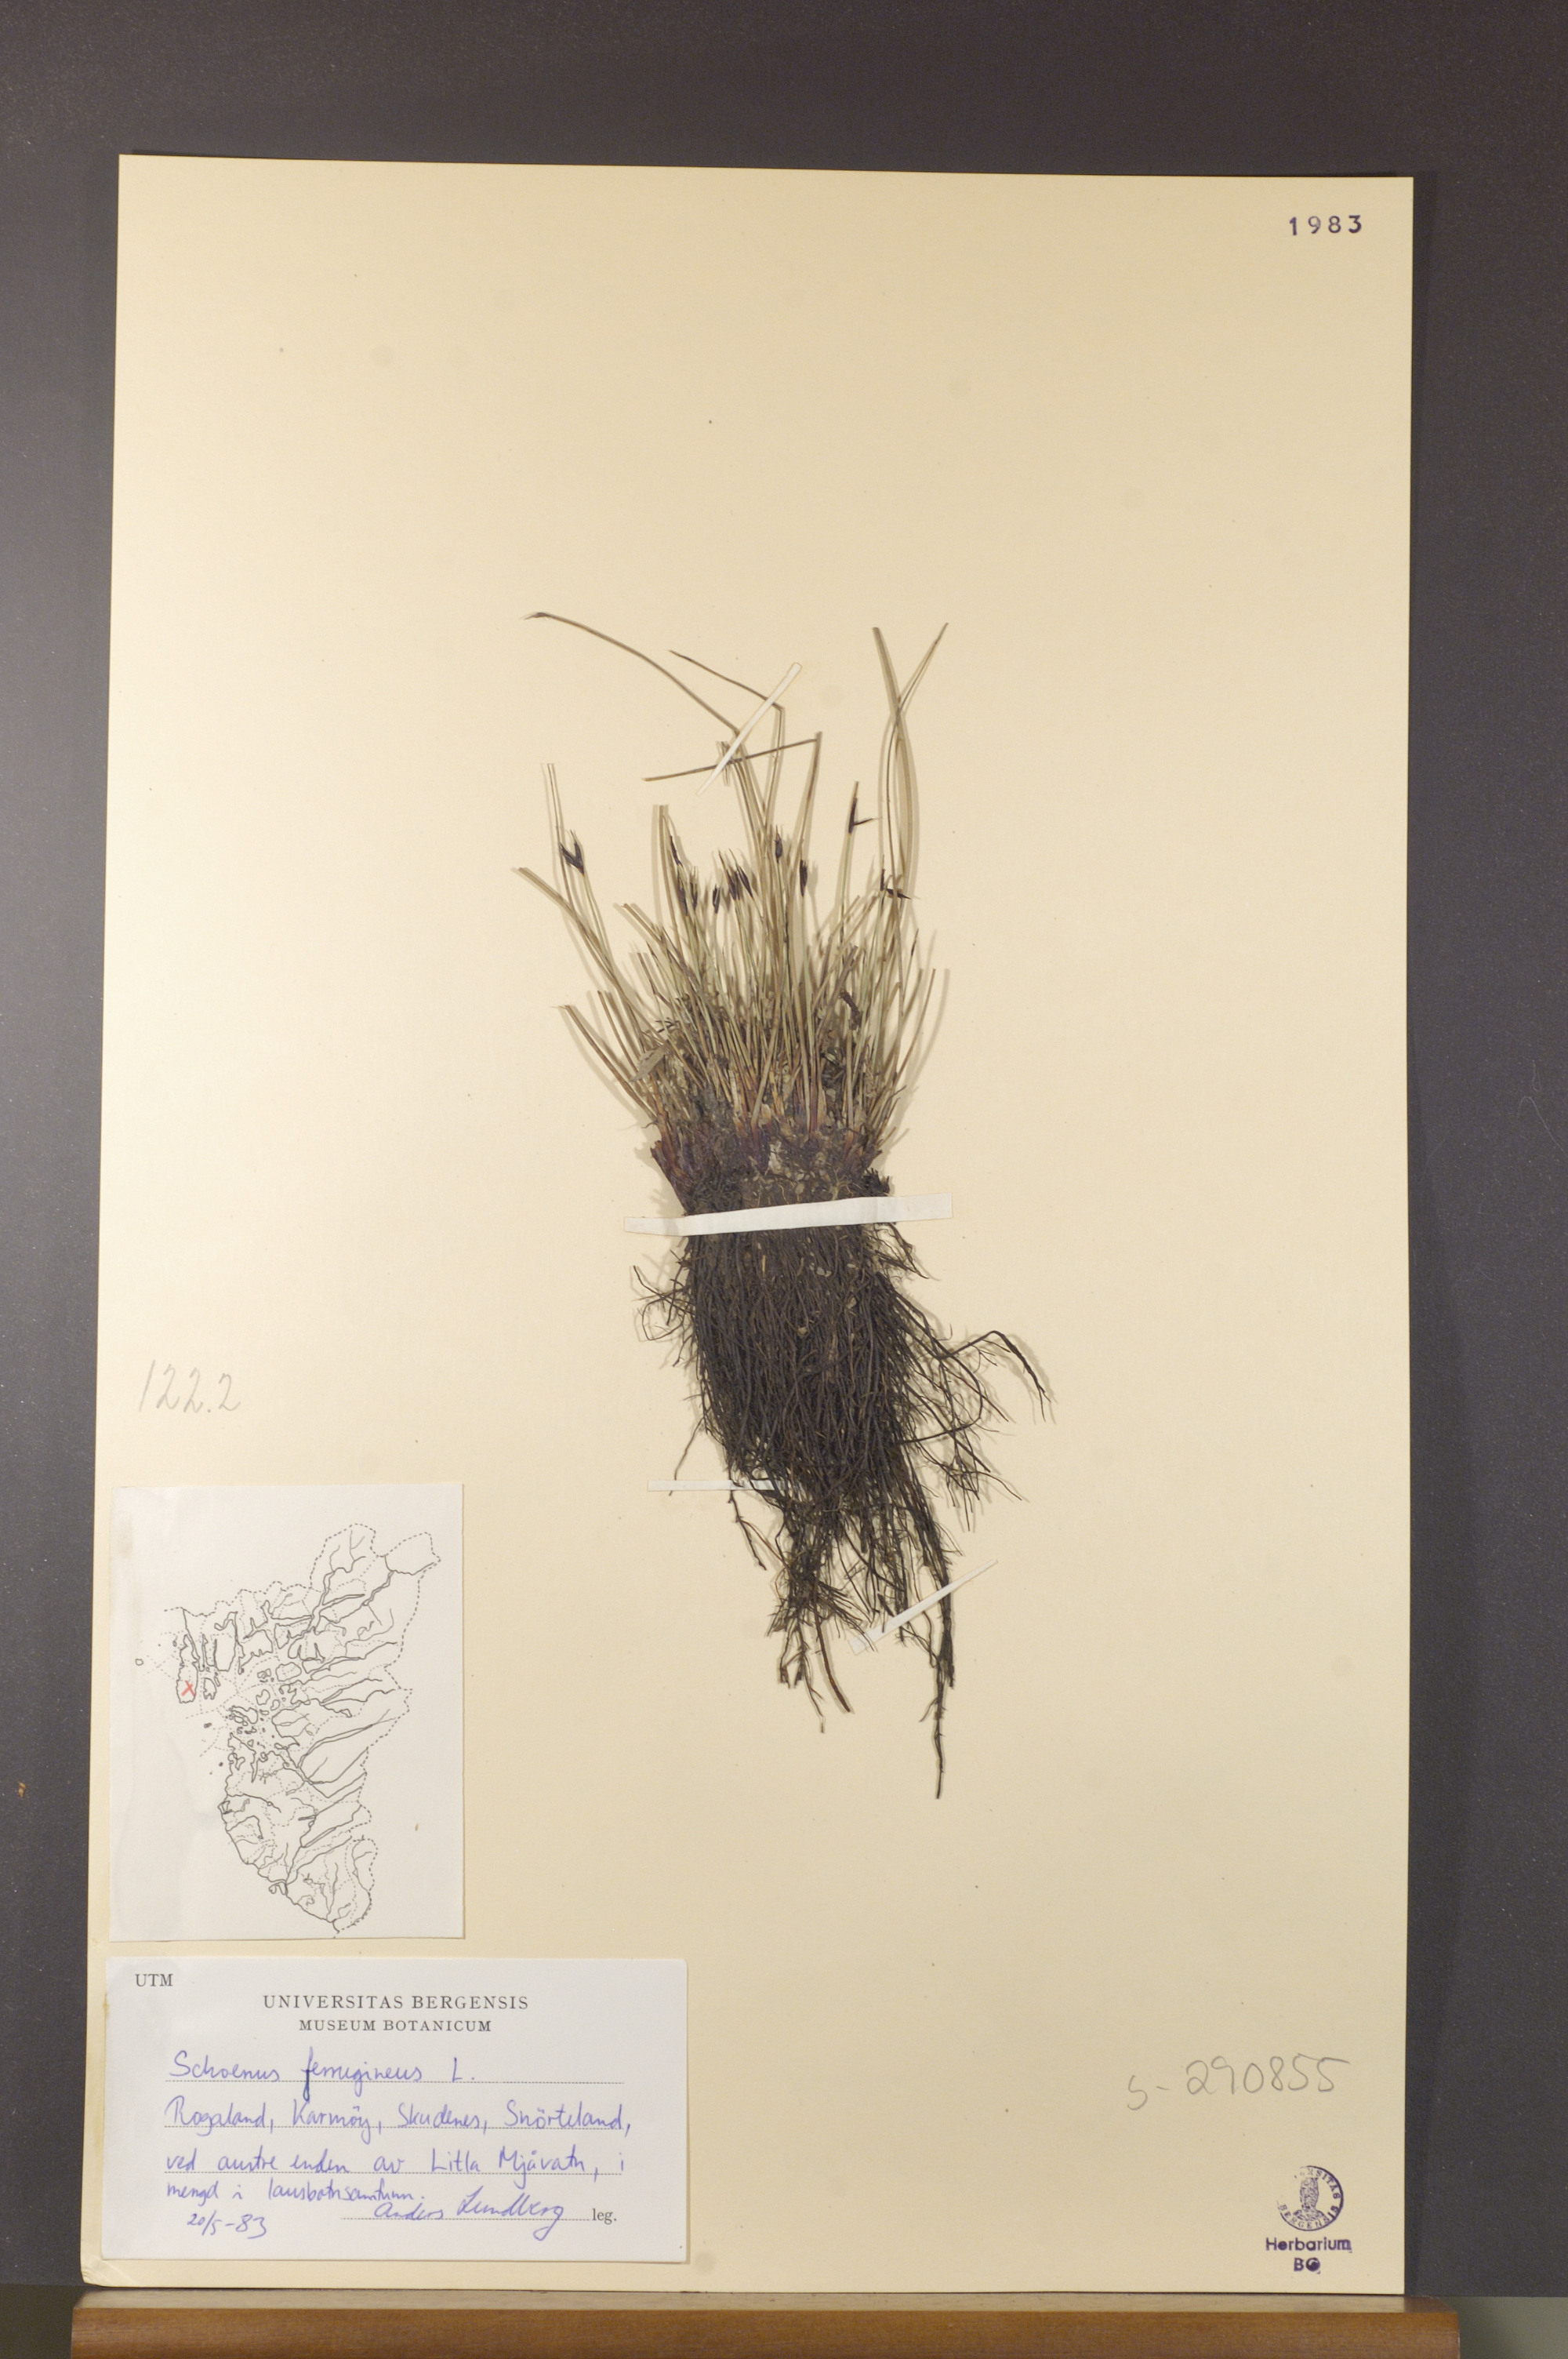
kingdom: Plantae
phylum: Tracheophyta
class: Liliopsida
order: Poales
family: Cyperaceae
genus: Schoenus
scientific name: Schoenus ferrugineus
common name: Brown bog-rush
